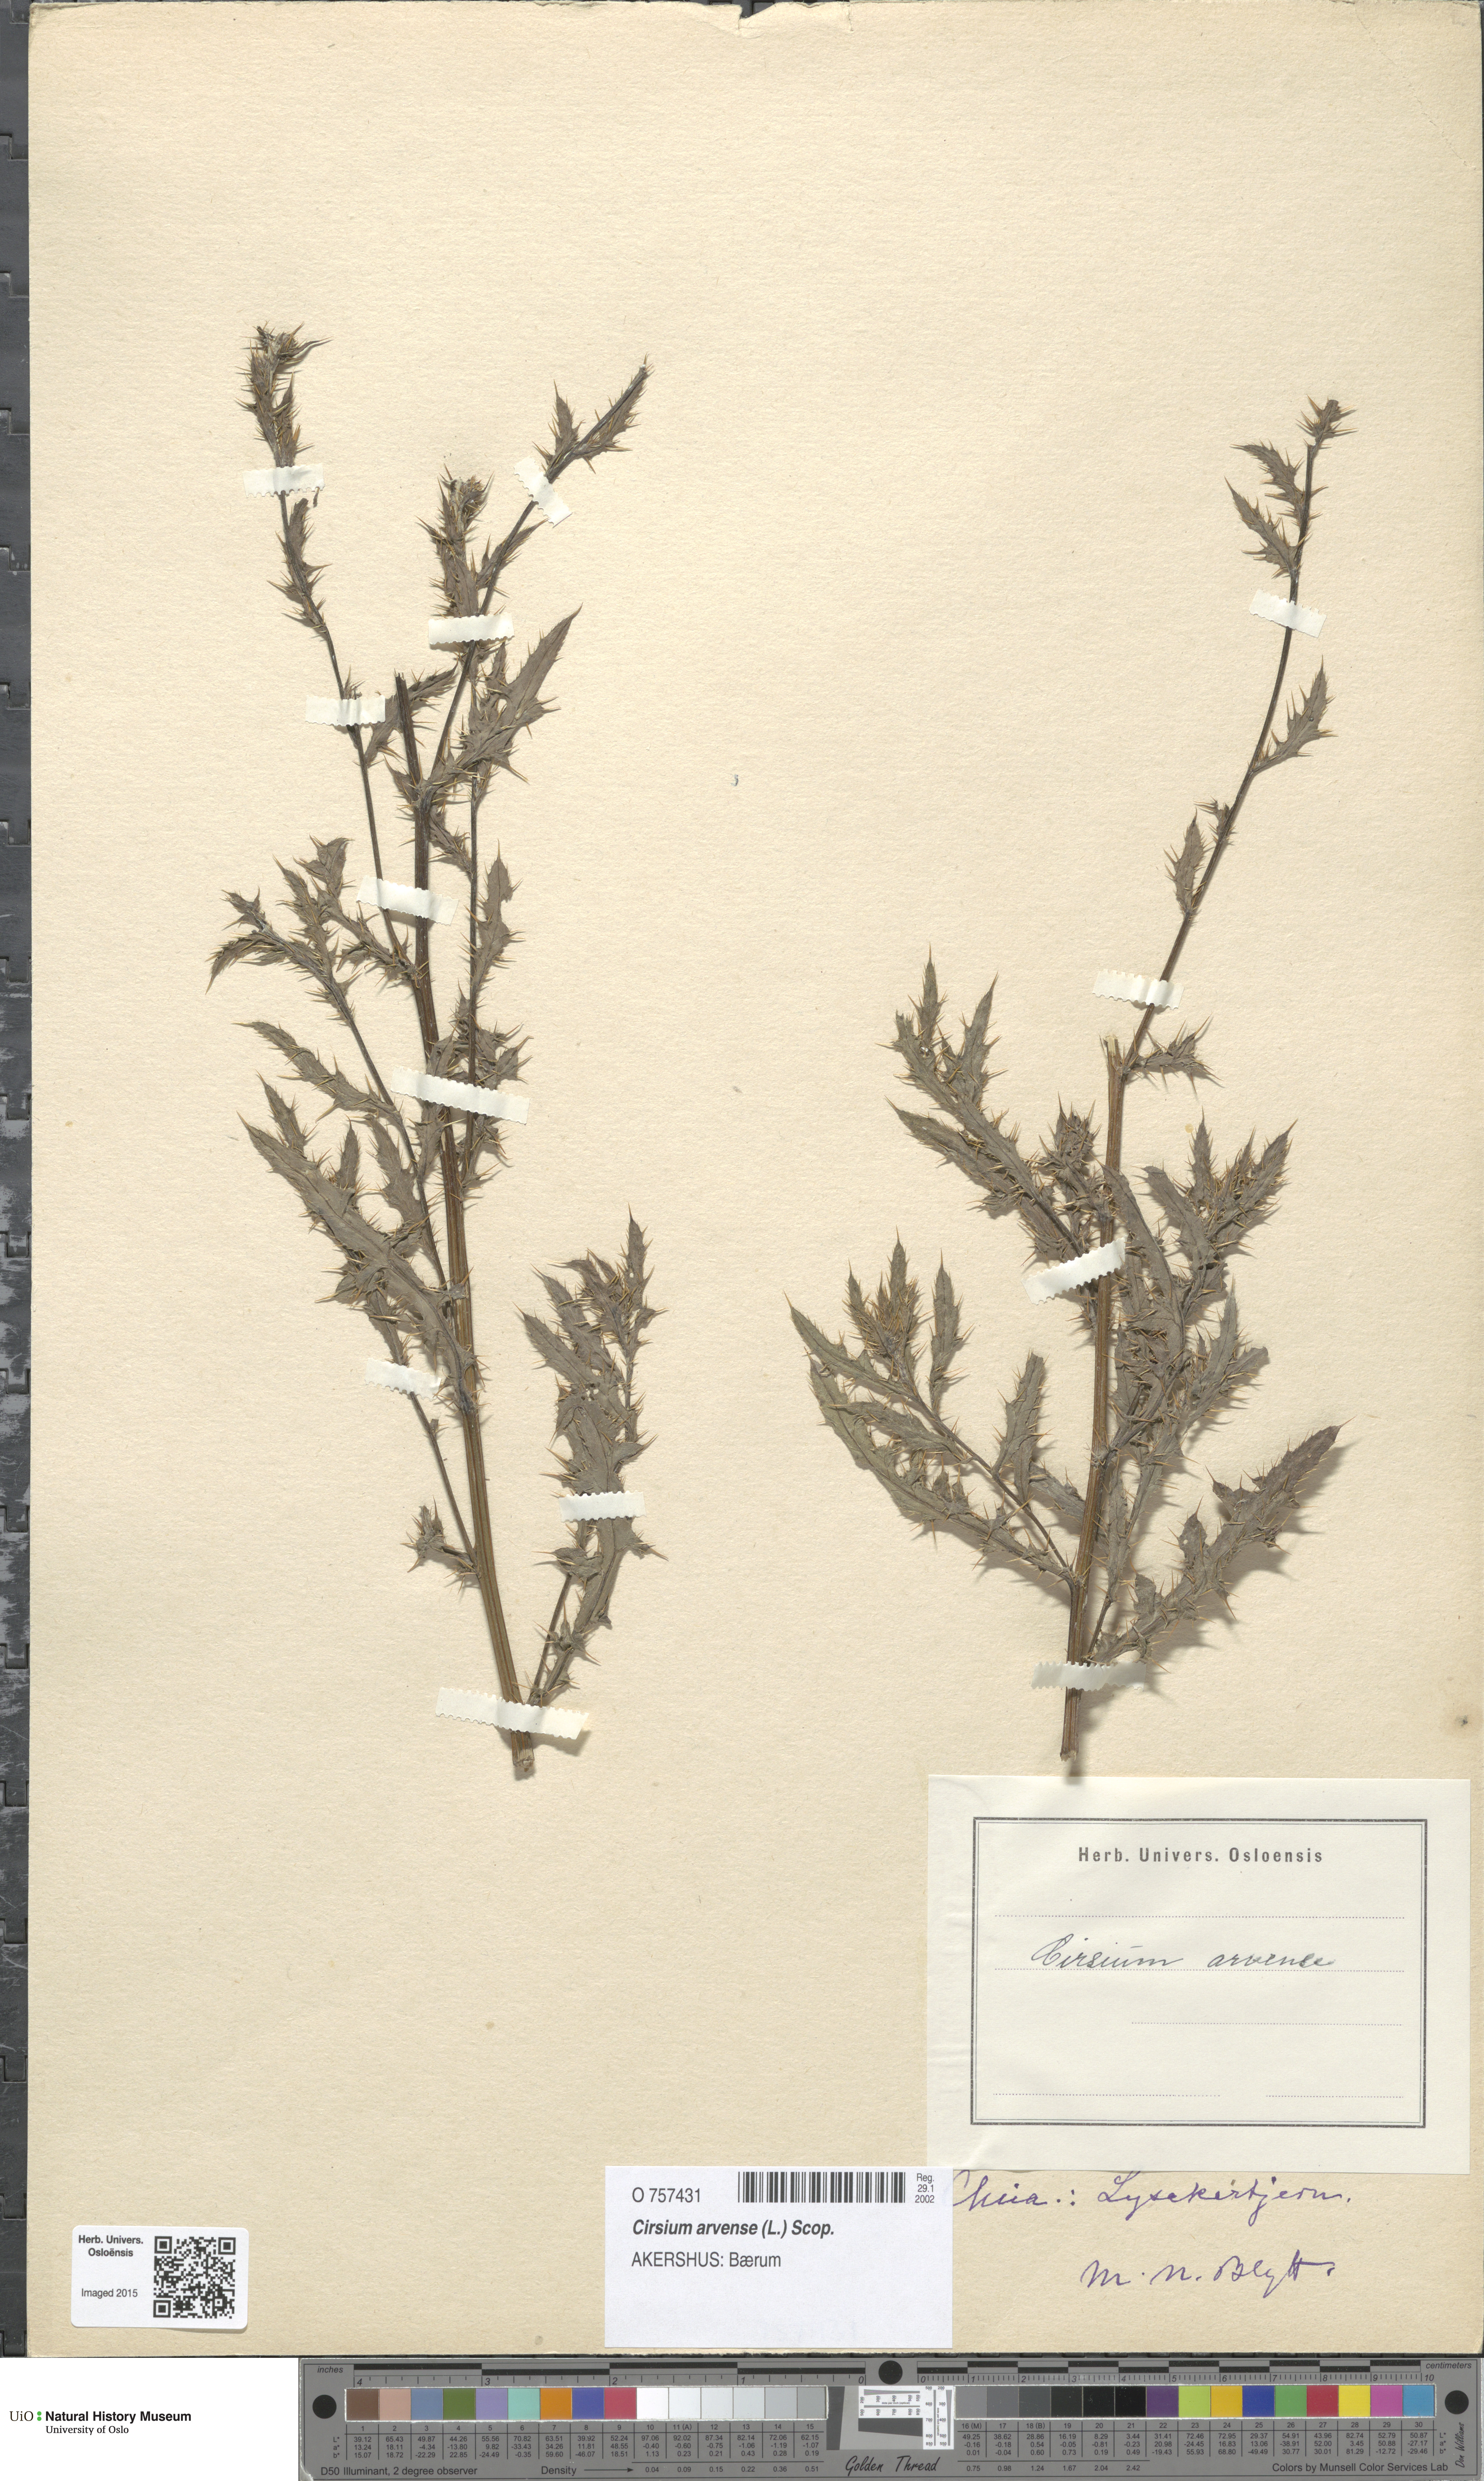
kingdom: Plantae
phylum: Tracheophyta
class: Magnoliopsida
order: Asterales
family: Asteraceae
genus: Cirsium
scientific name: Cirsium arvense
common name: Creeping thistle
